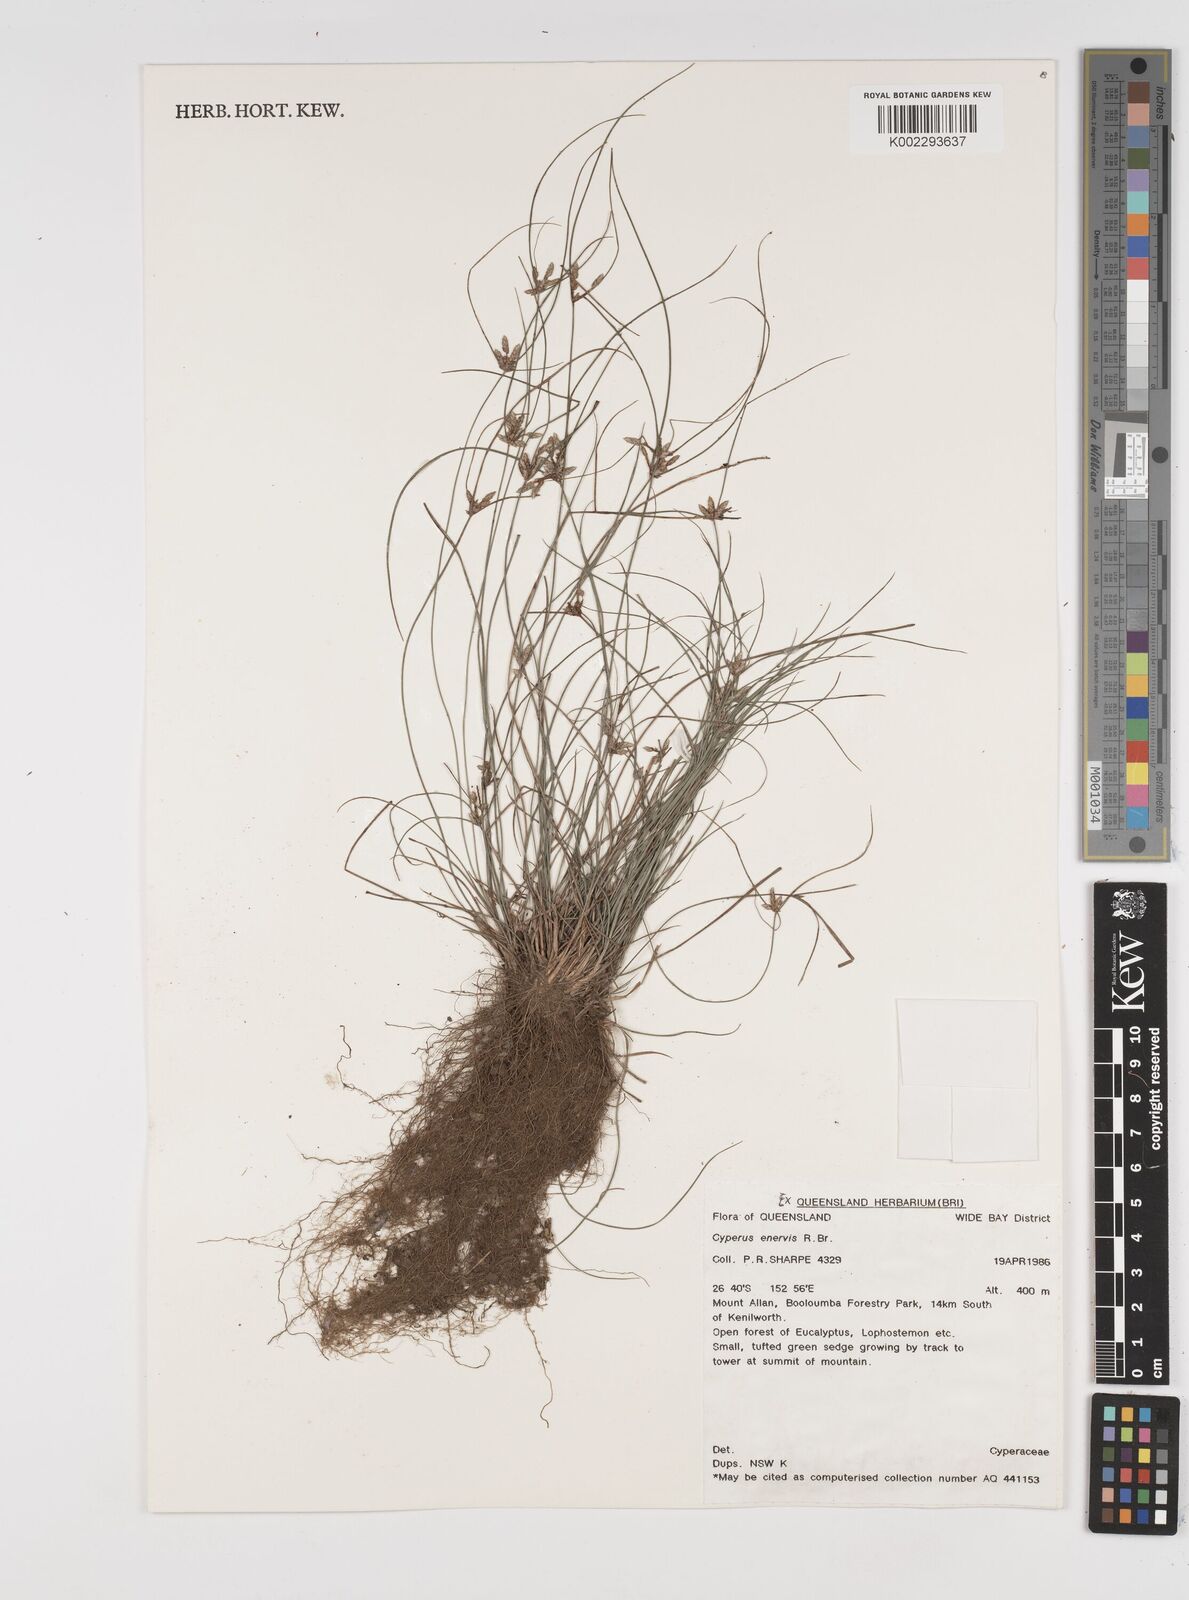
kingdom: Plantae
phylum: Tracheophyta
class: Liliopsida
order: Poales
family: Cyperaceae
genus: Cyperus
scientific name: Cyperus enervis
